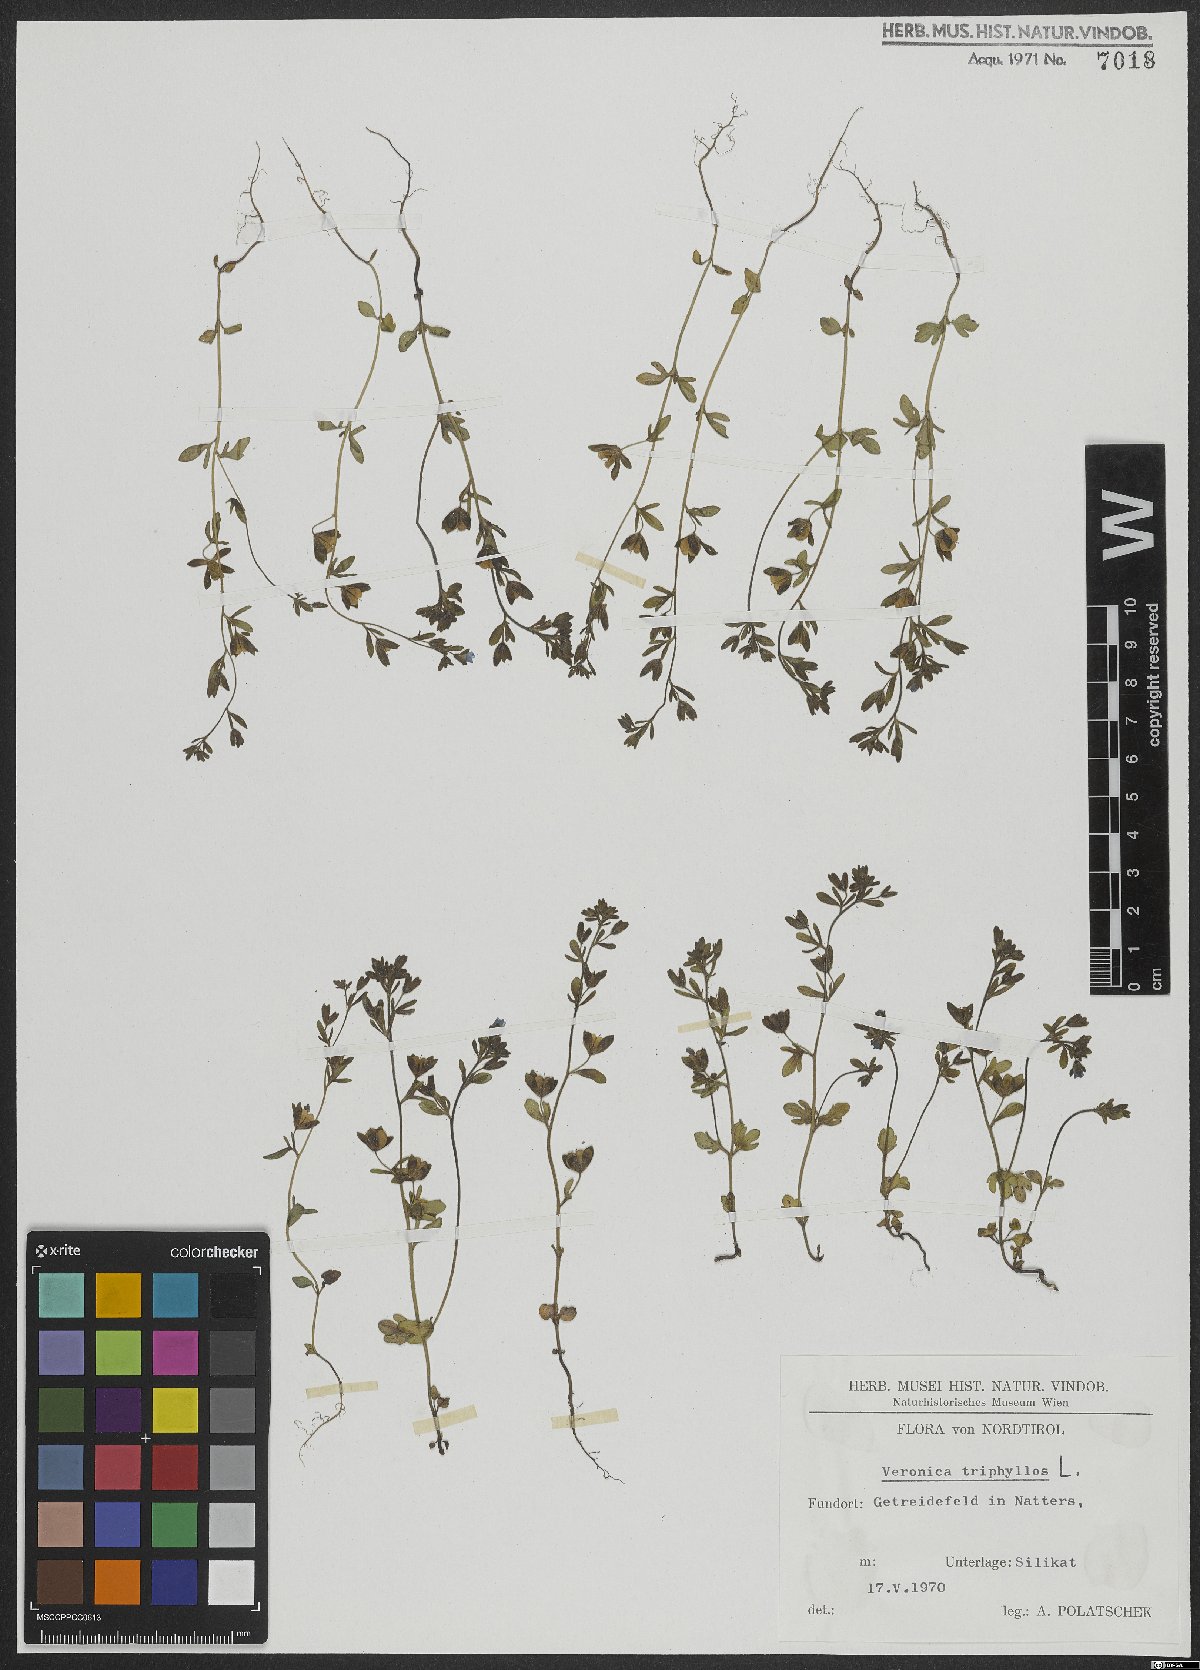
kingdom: Plantae
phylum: Tracheophyta
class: Magnoliopsida
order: Lamiales
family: Plantaginaceae
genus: Veronica
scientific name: Veronica triphyllos
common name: Fingered speedwell
